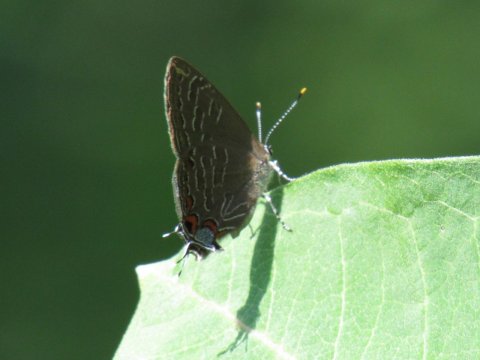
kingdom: Animalia
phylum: Arthropoda
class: Insecta
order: Lepidoptera
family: Lycaenidae
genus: Satyrium
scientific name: Satyrium liparops
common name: Striped Hairstreak
